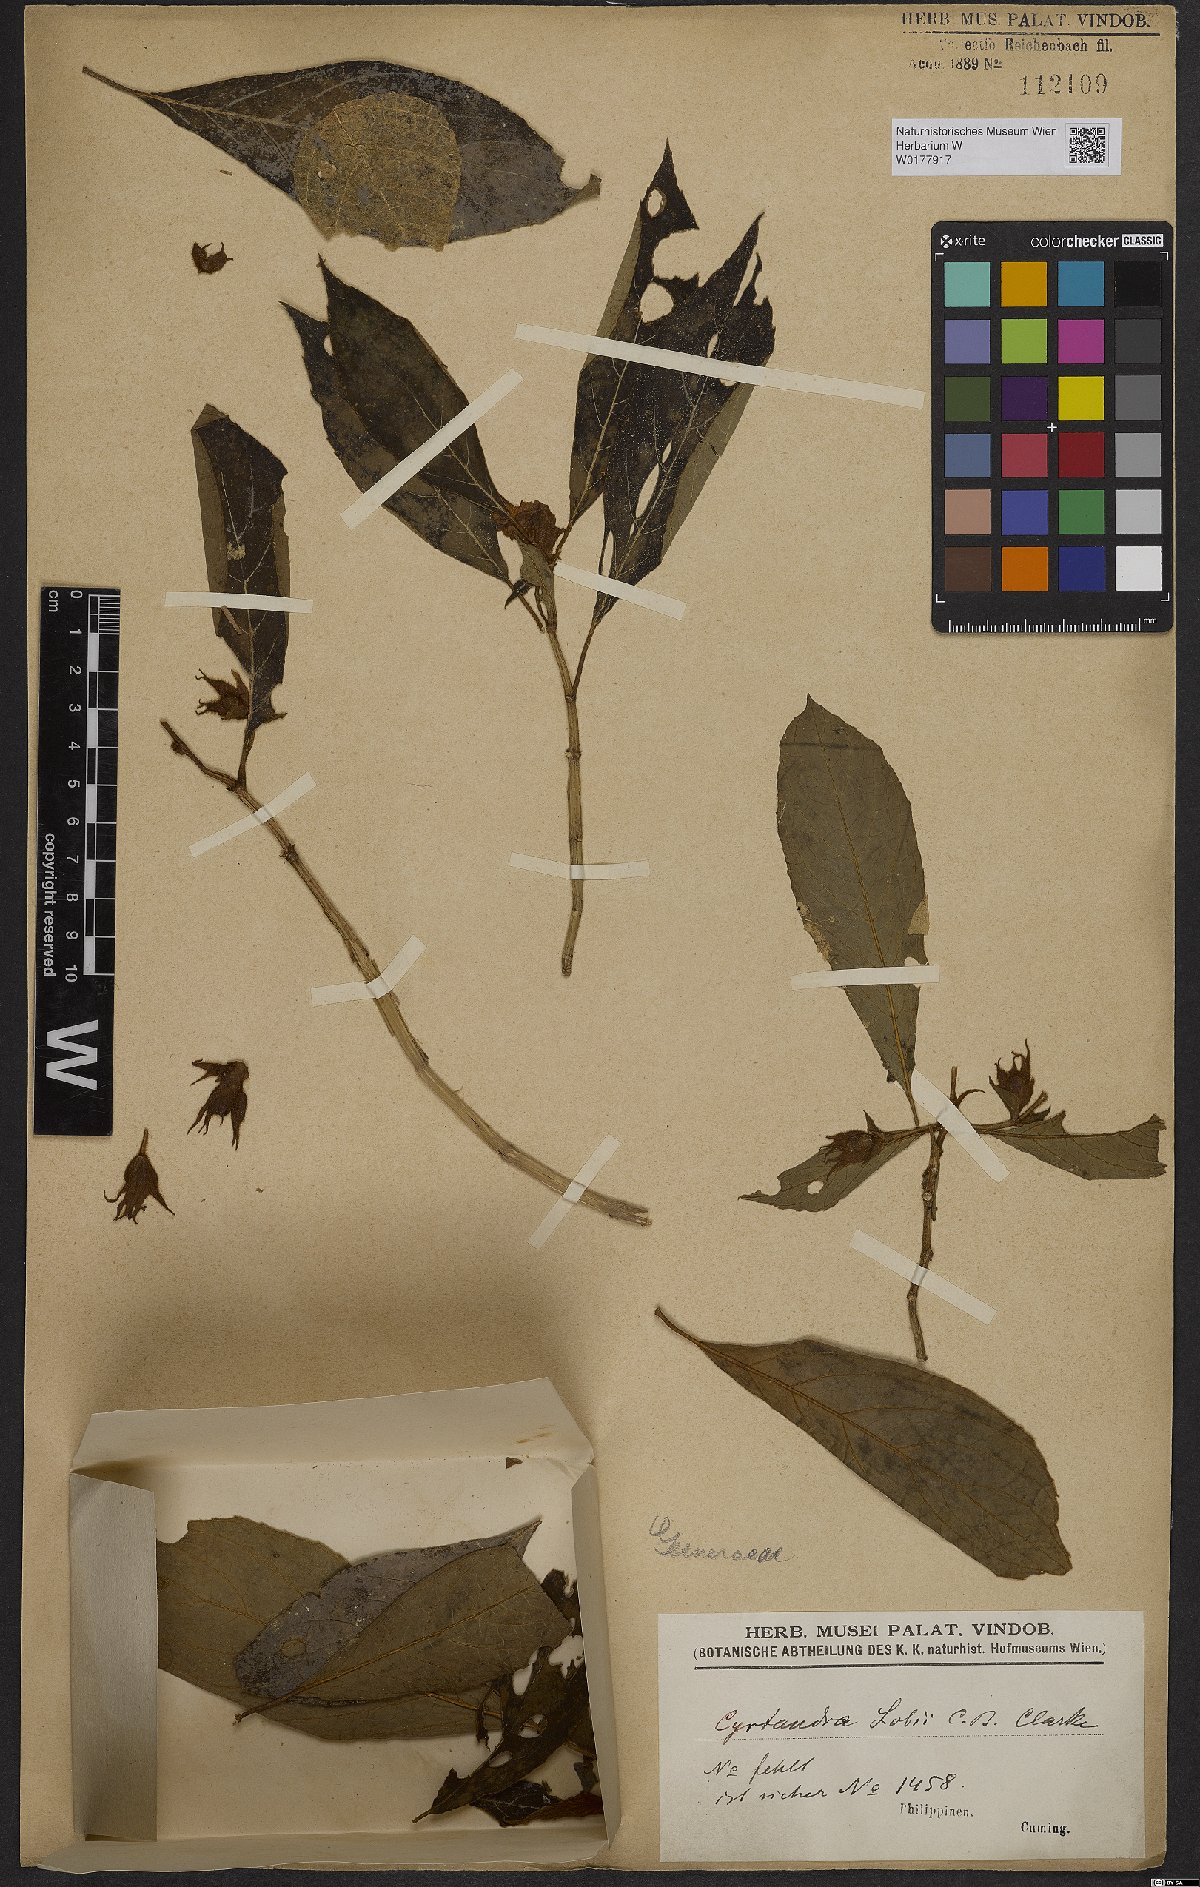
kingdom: Plantae
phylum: Tracheophyta
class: Magnoliopsida
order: Lamiales
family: Gesneriaceae
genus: Cyrtandra
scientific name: Cyrtandra lobbii
